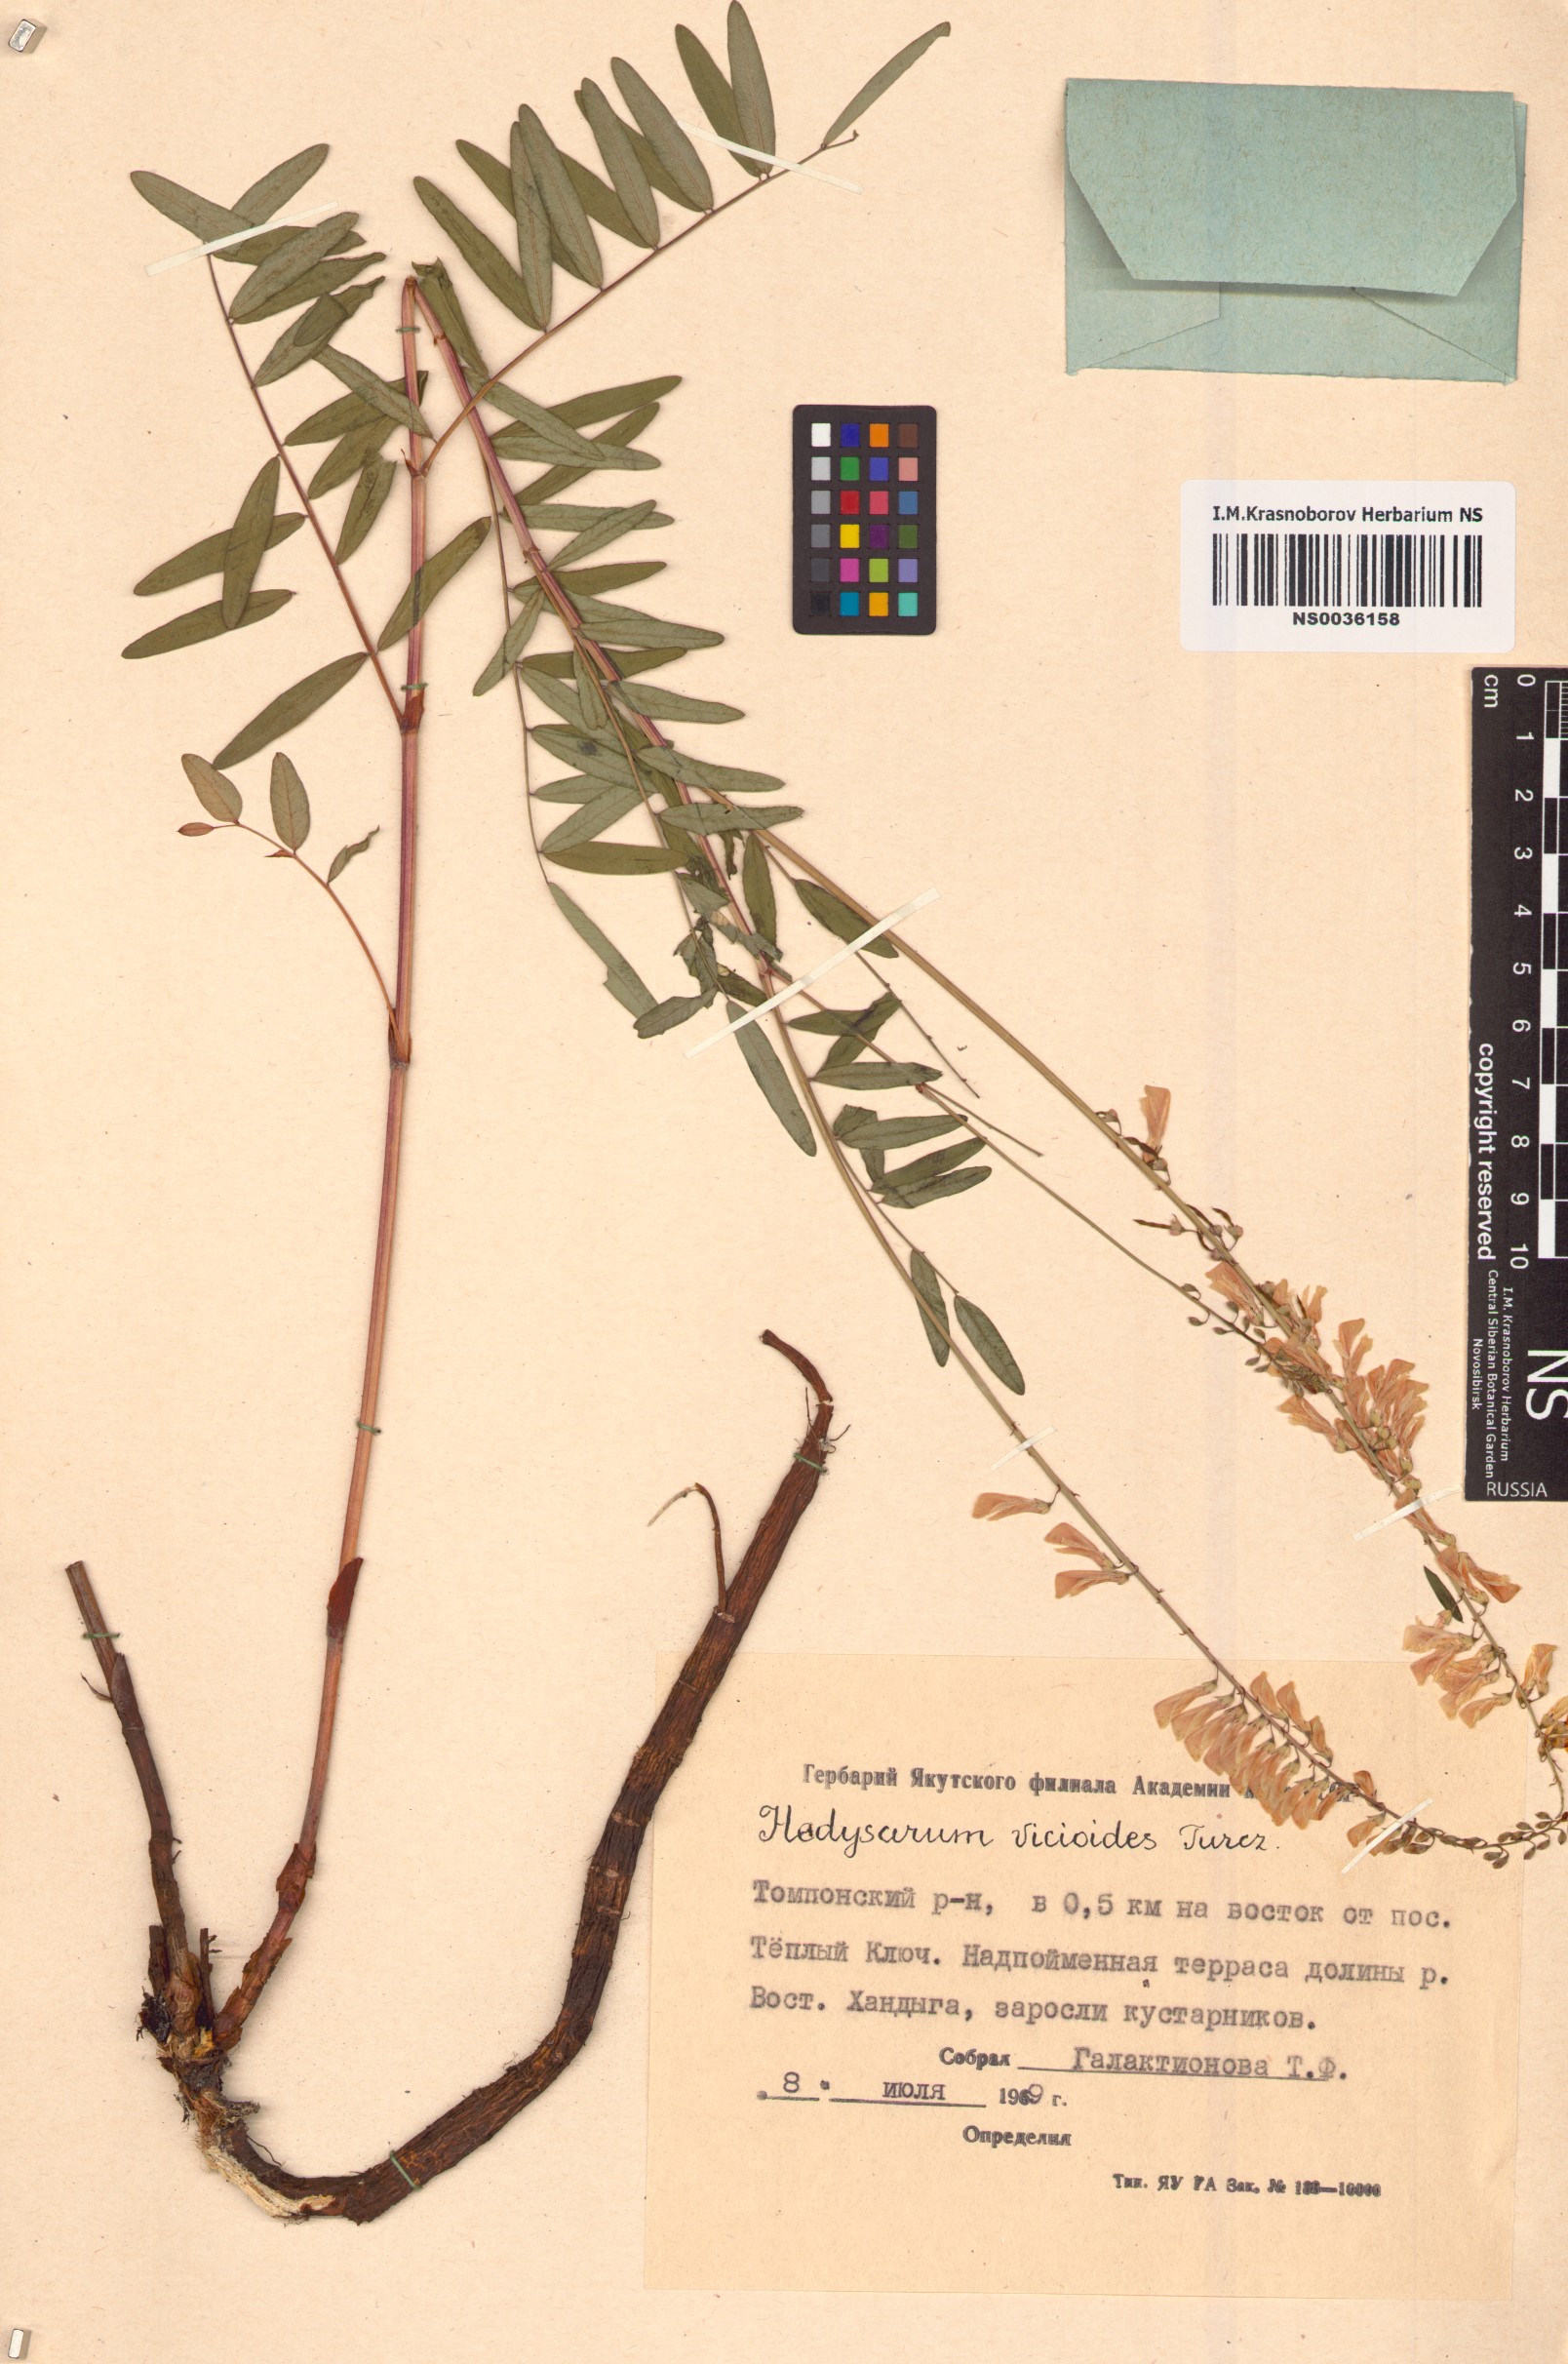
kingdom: Plantae
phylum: Tracheophyta
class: Magnoliopsida
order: Fabales
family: Fabaceae
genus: Hedysarum
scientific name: Hedysarum vicioides
